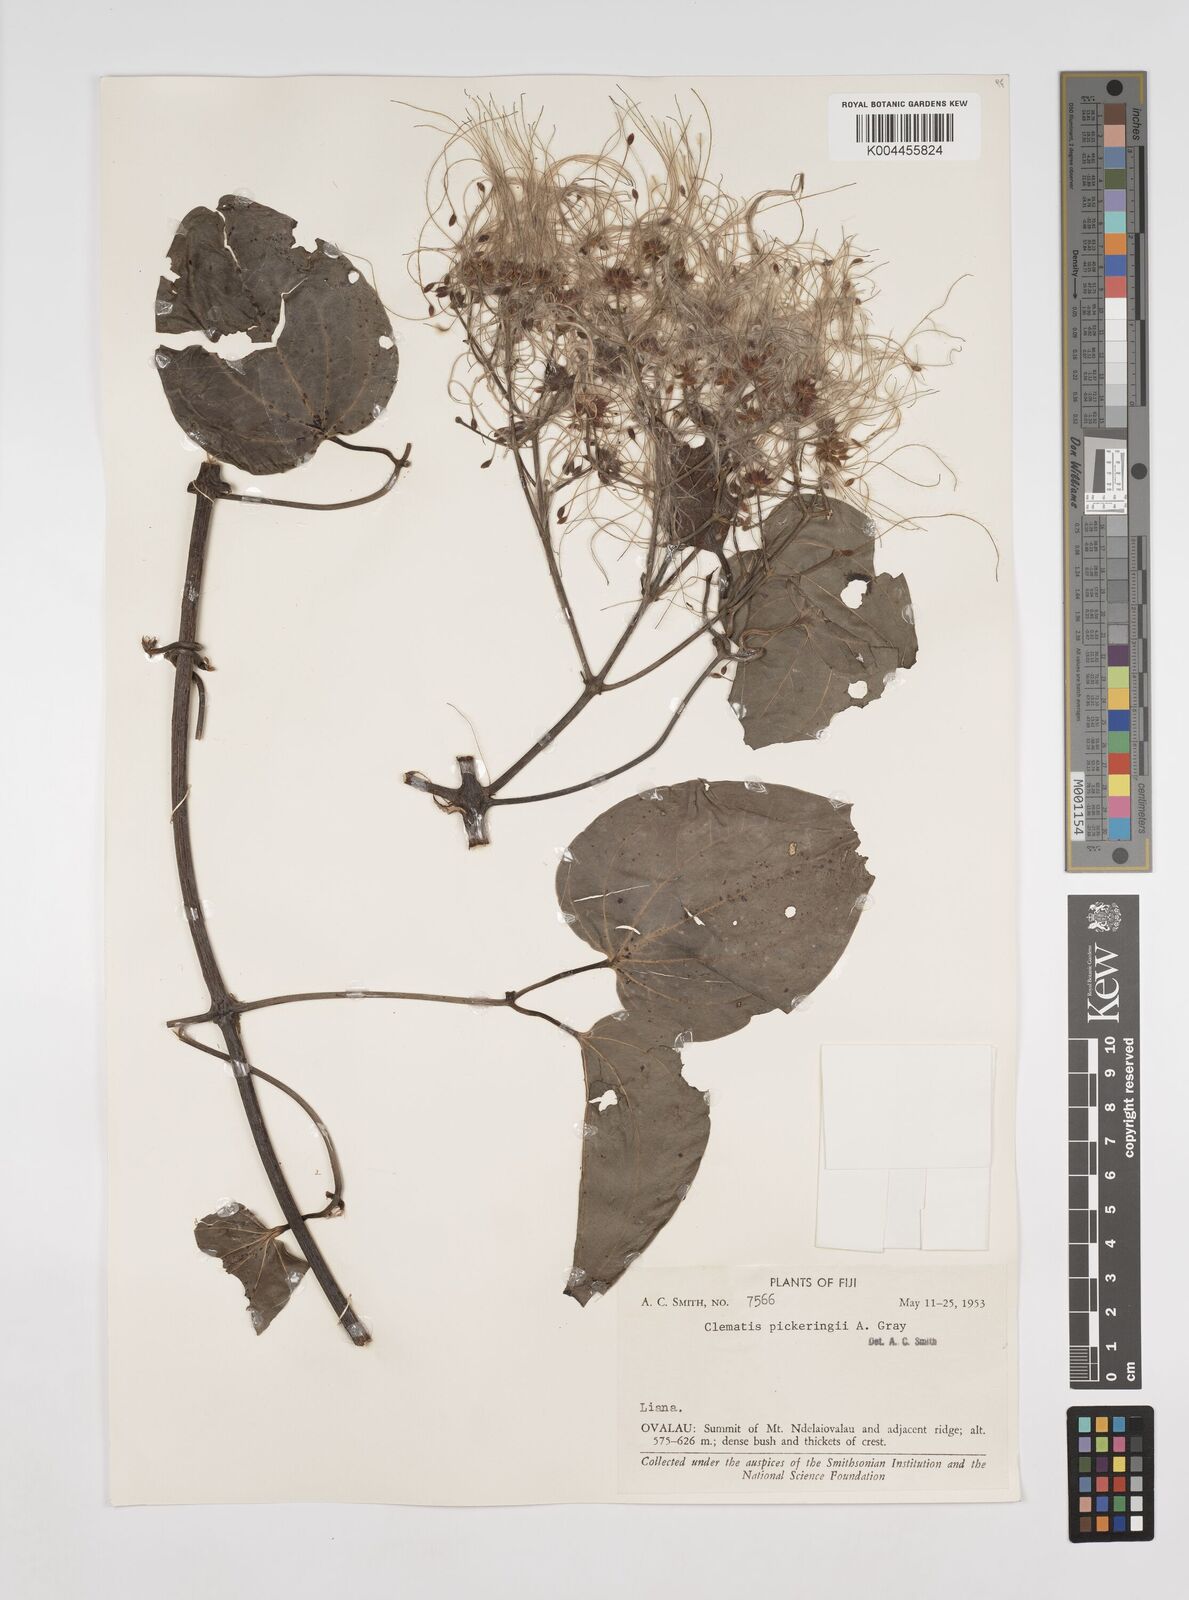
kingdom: Plantae
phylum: Tracheophyta
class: Magnoliopsida
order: Ranunculales
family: Ranunculaceae
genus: Clematis
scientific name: Clematis pickeringii
